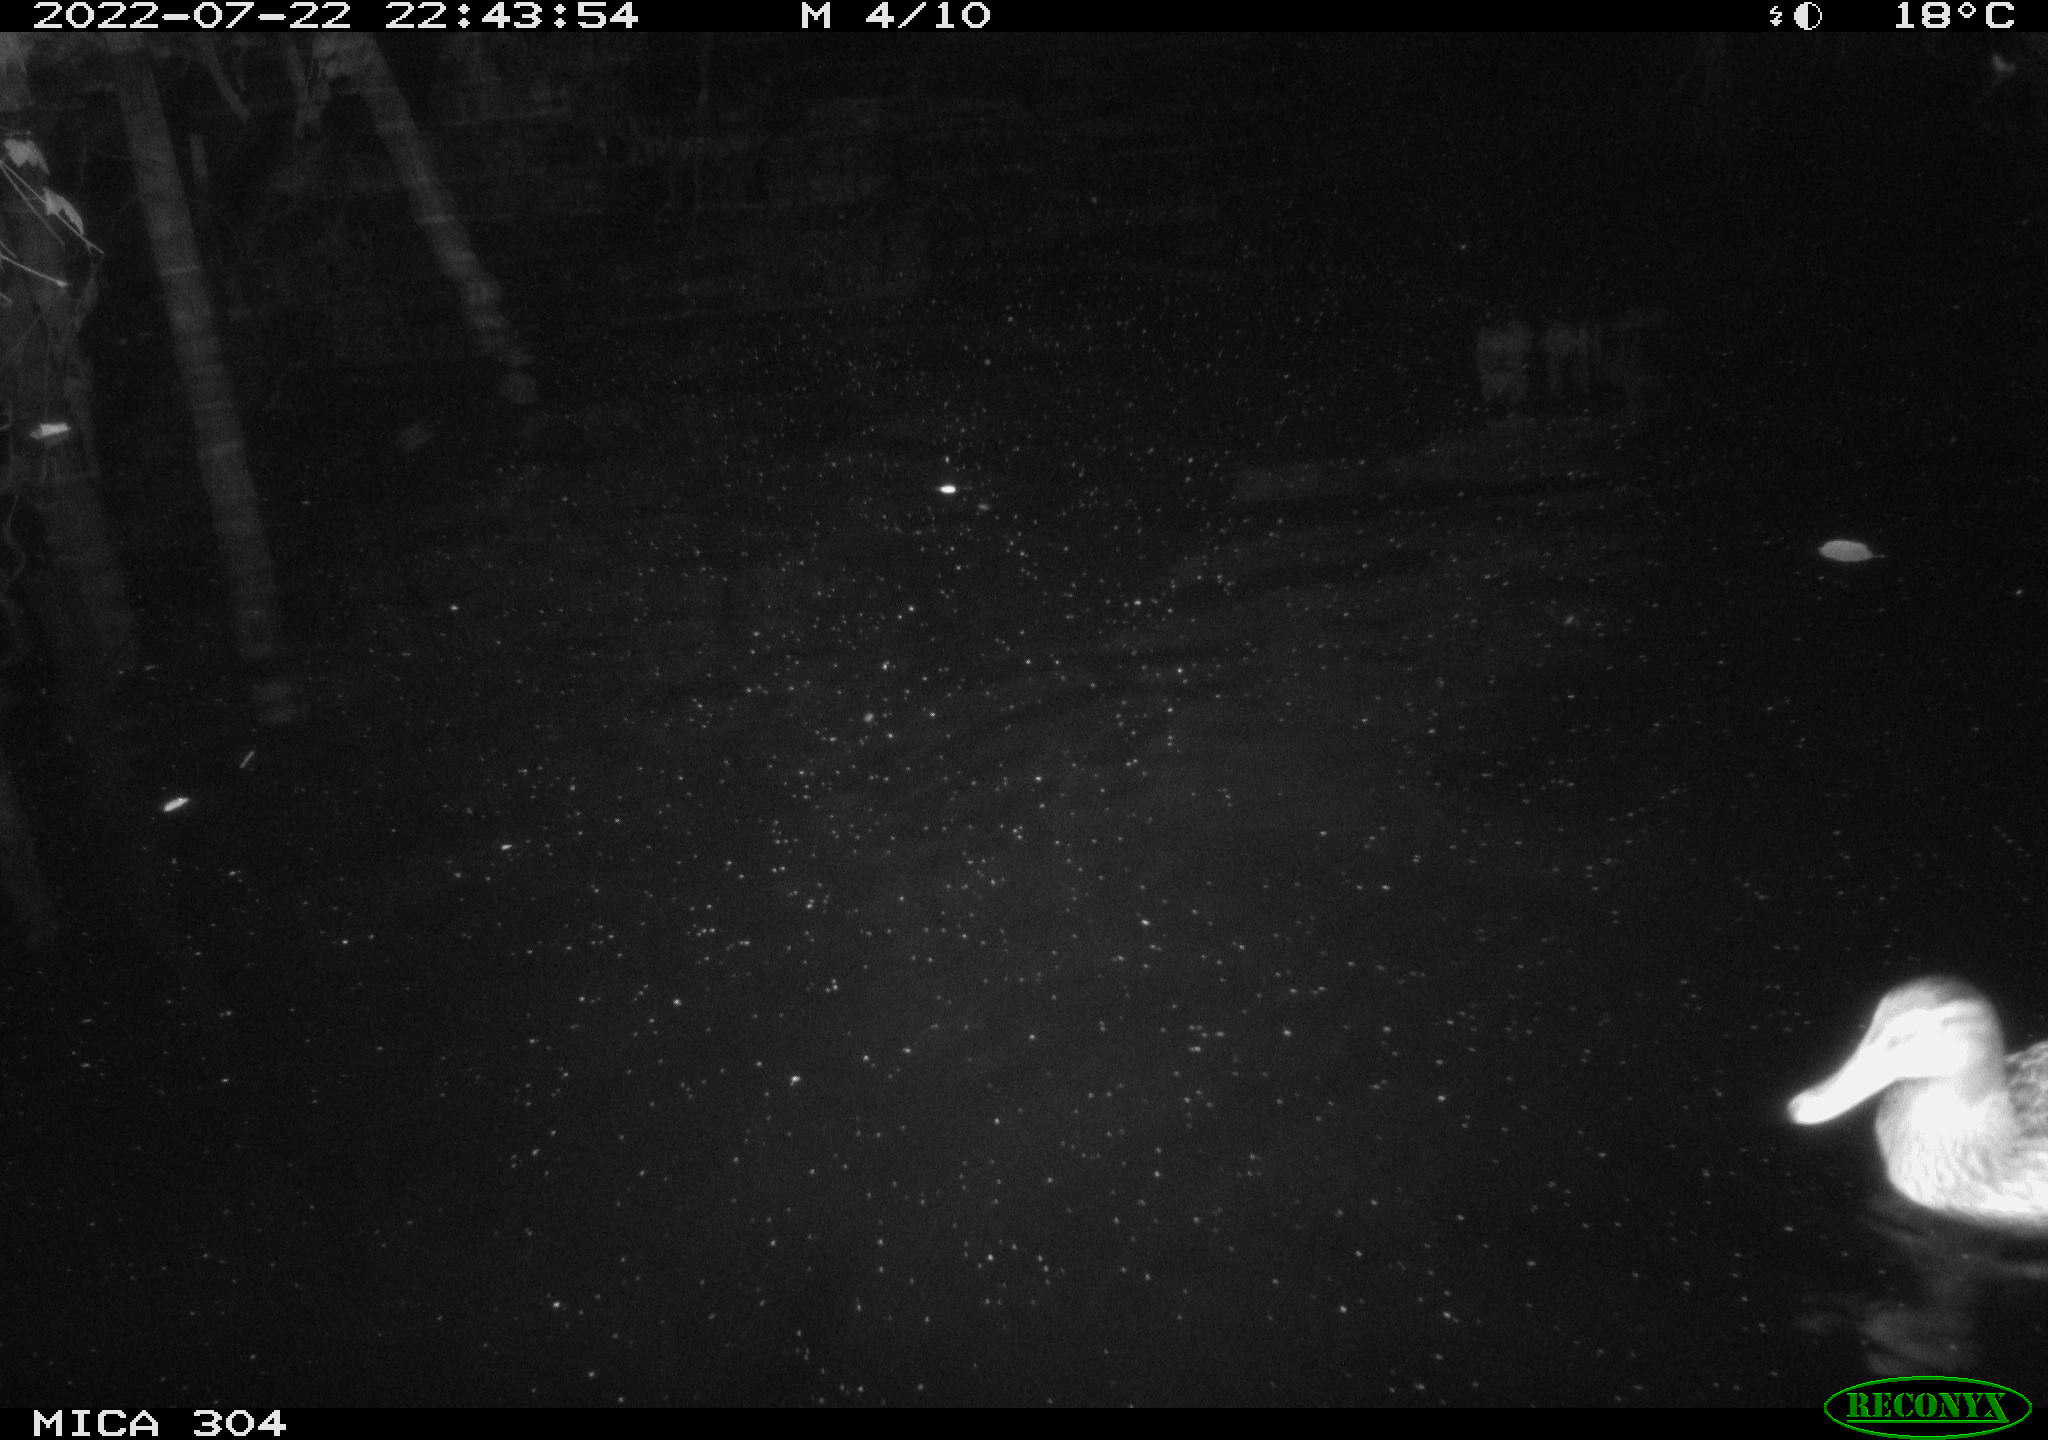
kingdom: Animalia
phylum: Chordata
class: Aves
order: Anseriformes
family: Anatidae
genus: Anas
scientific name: Anas platyrhynchos
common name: Mallard
